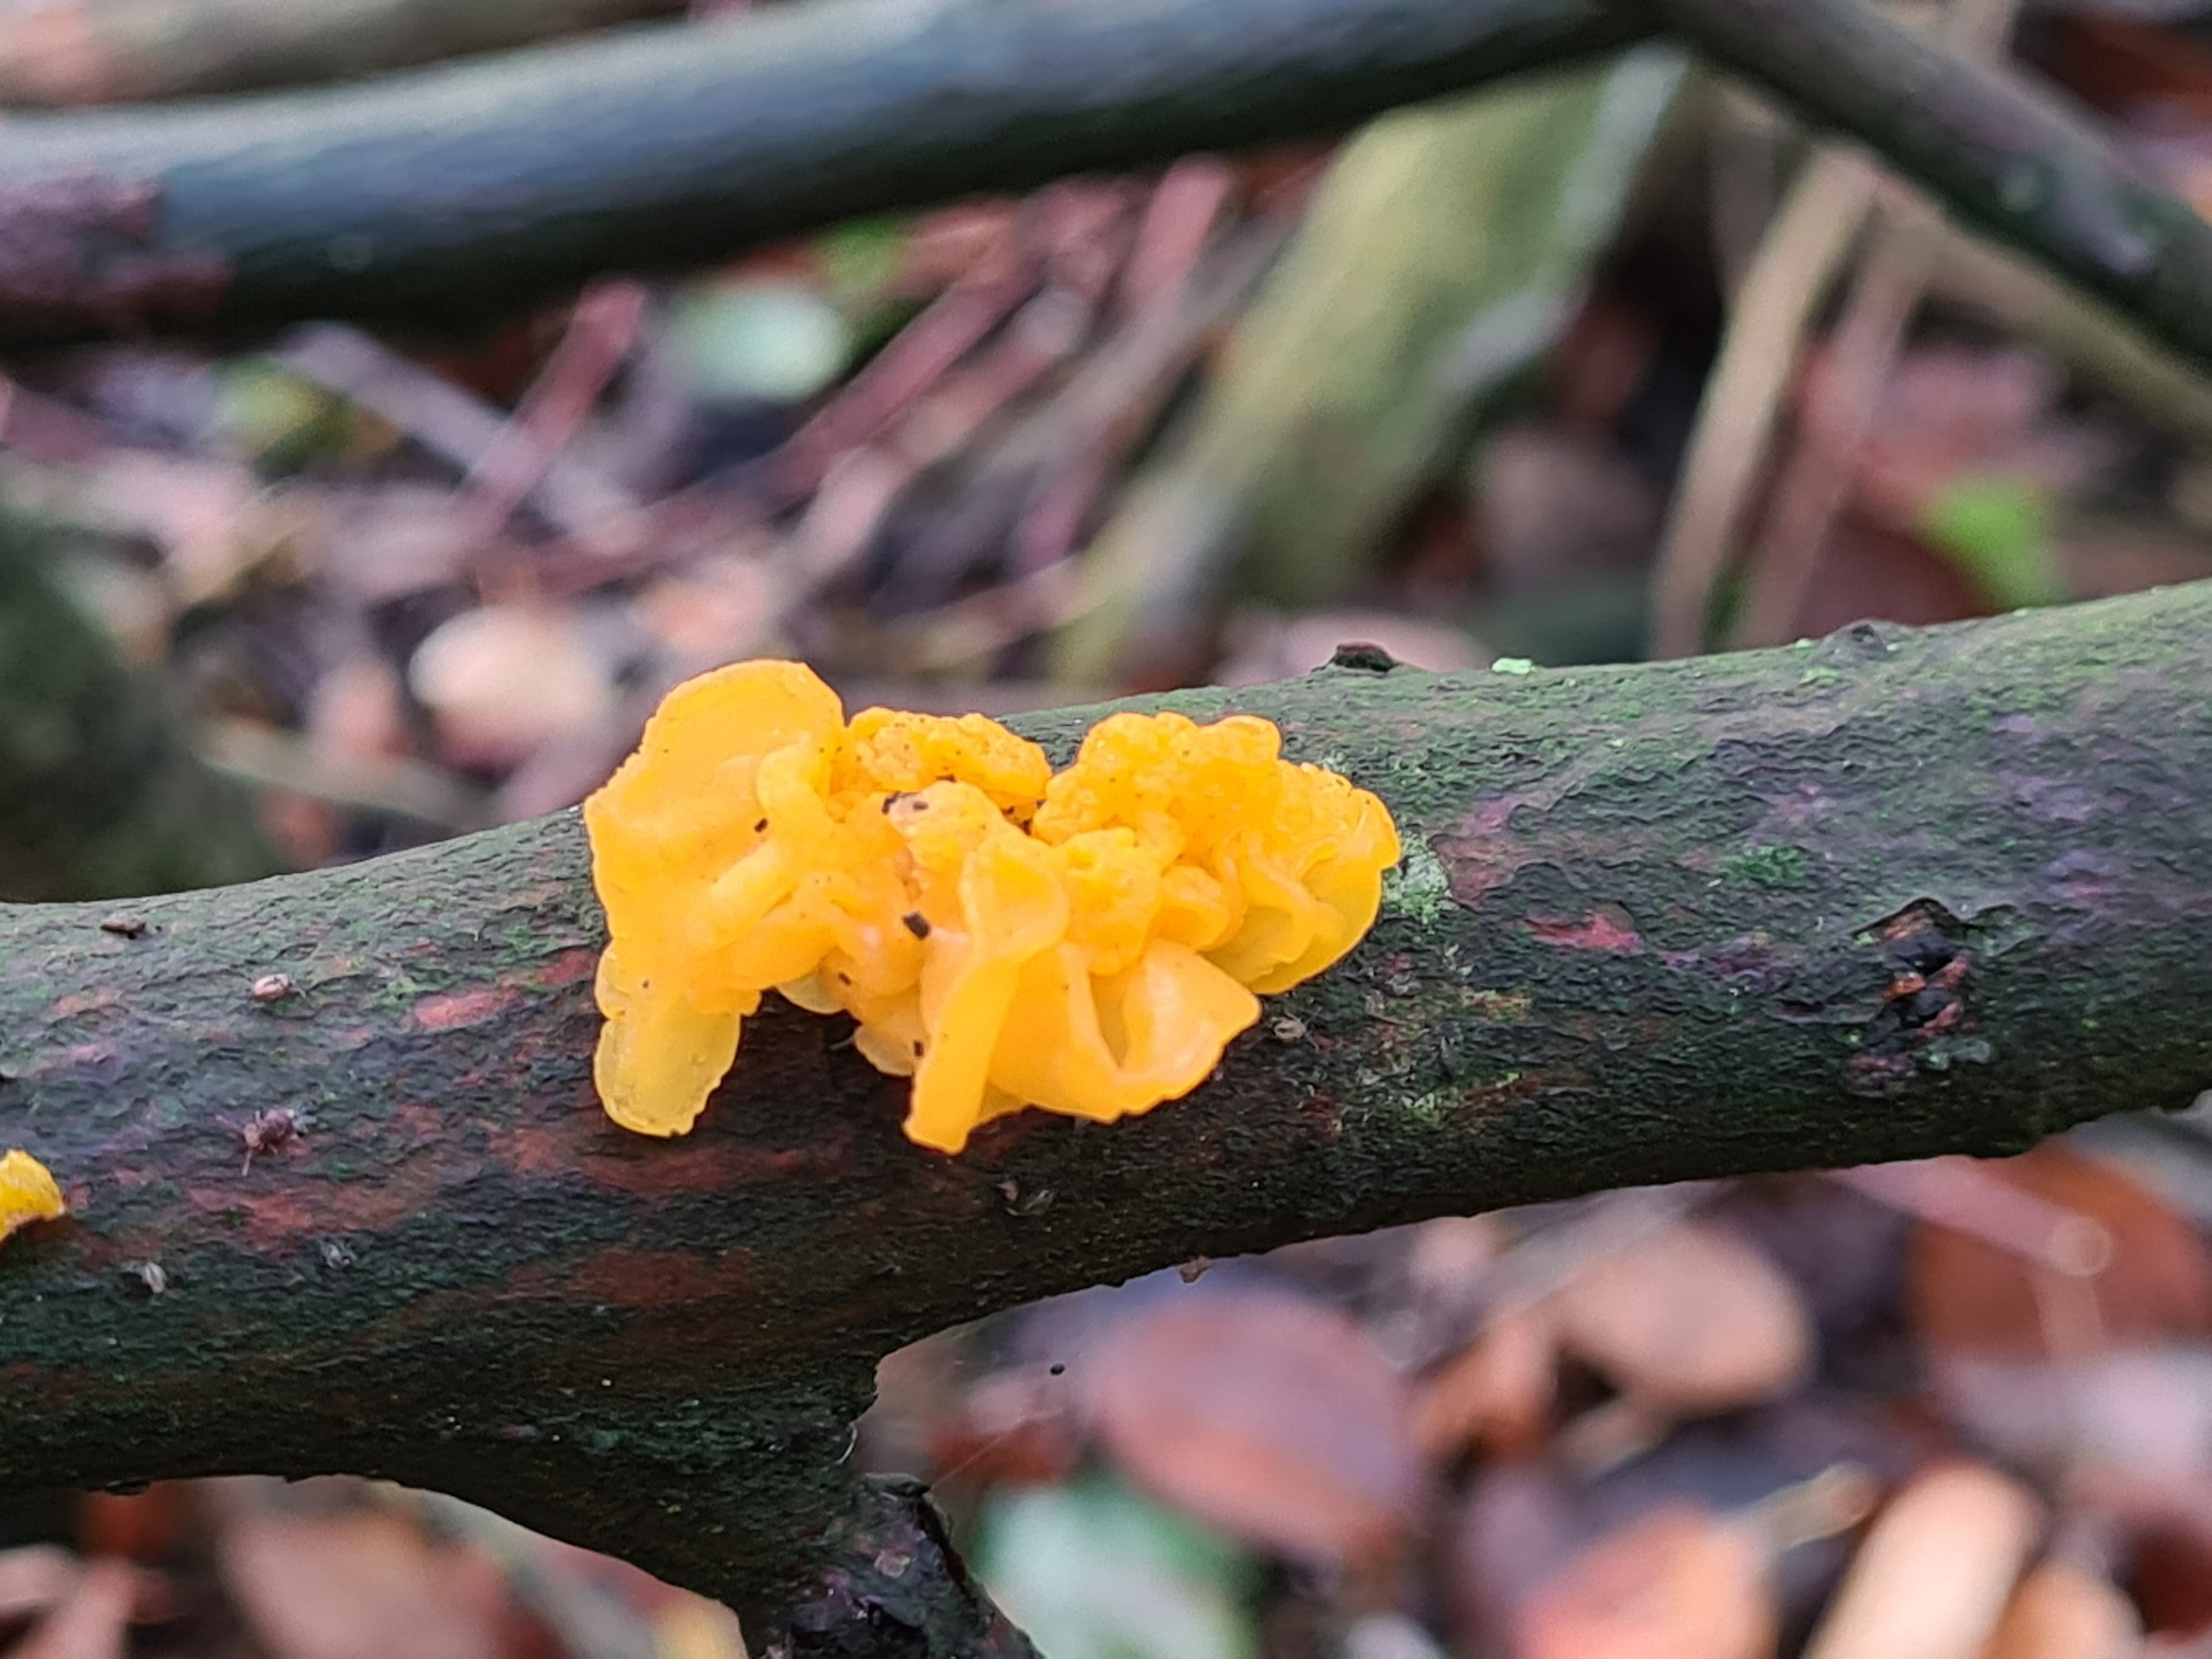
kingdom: Fungi
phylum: Basidiomycota
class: Tremellomycetes
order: Tremellales
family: Tremellaceae
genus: Tremella
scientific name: Tremella mesenterica
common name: Gul bævresvamp
